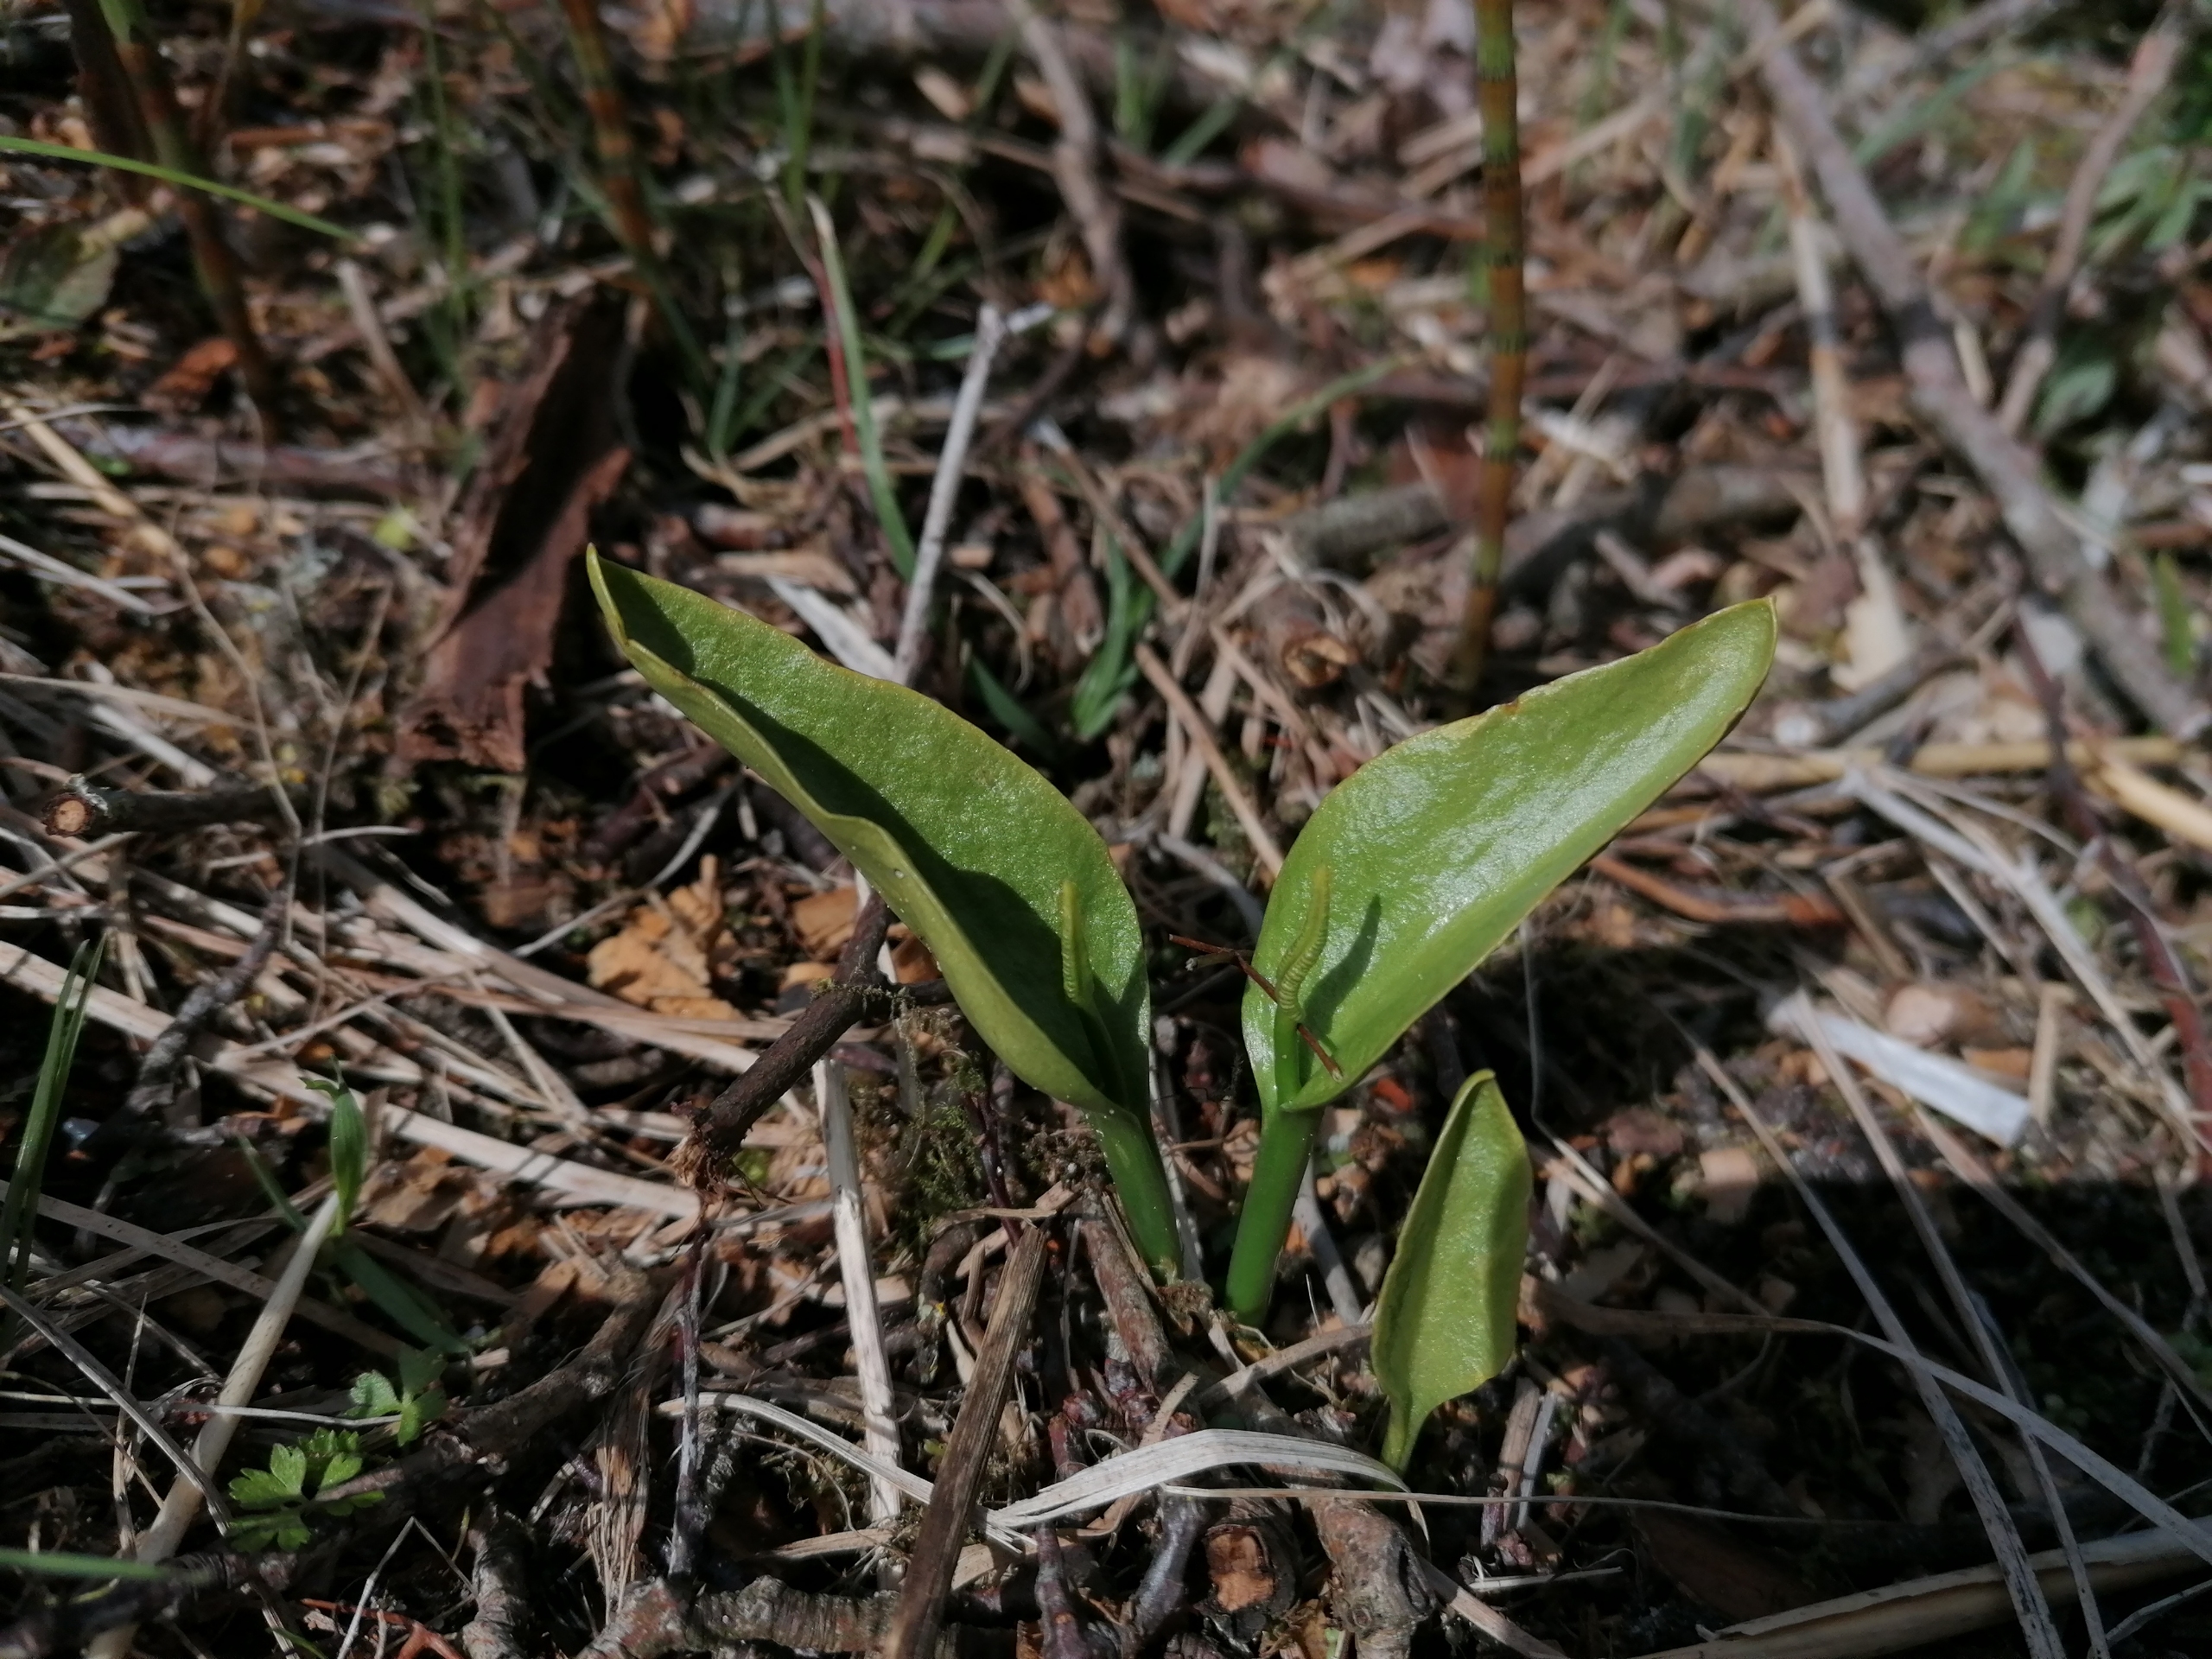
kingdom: Plantae
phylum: Tracheophyta
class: Polypodiopsida
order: Ophioglossales
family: Ophioglossaceae
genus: Ophioglossum
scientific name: Ophioglossum vulgatum
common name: Slangetunge
